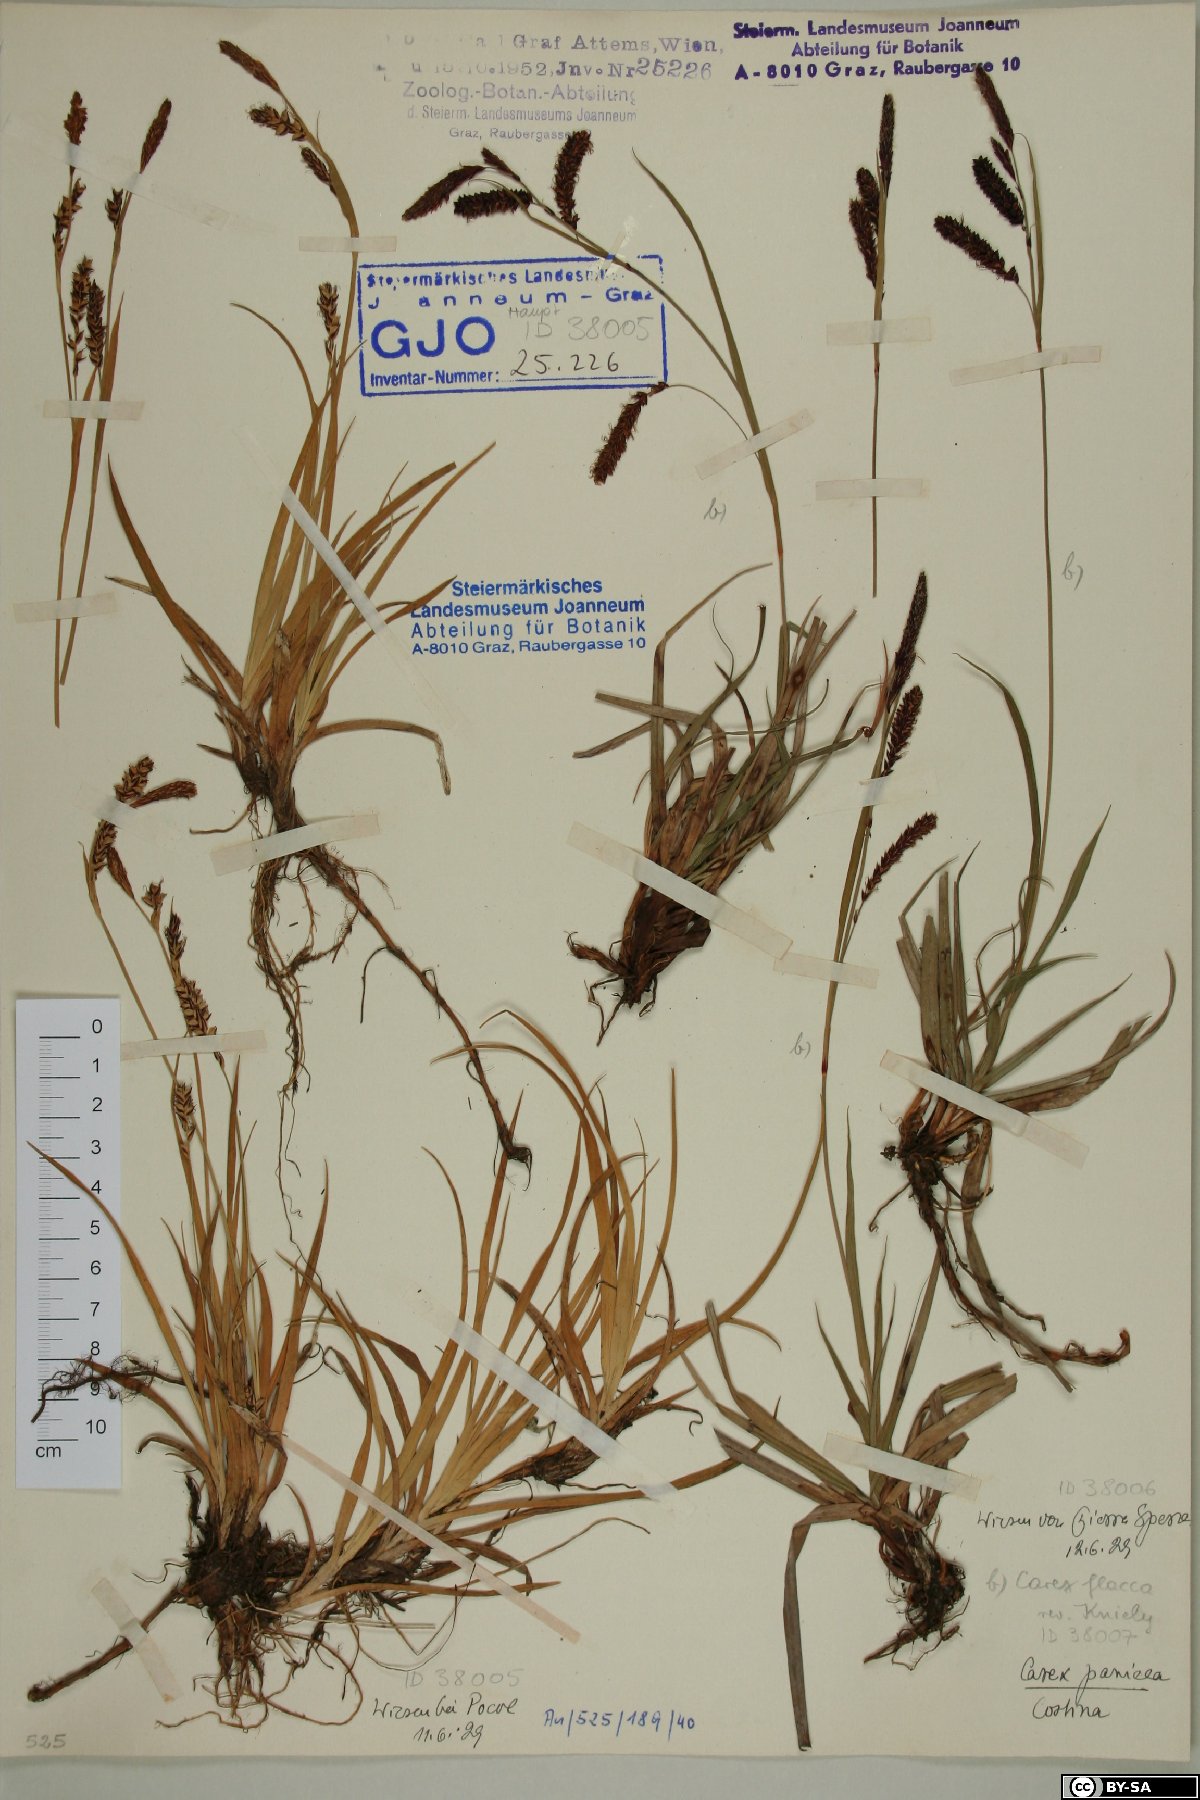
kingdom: Plantae
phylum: Tracheophyta
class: Liliopsida
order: Poales
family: Cyperaceae
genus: Carex
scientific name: Carex panicea
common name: Carnation sedge
